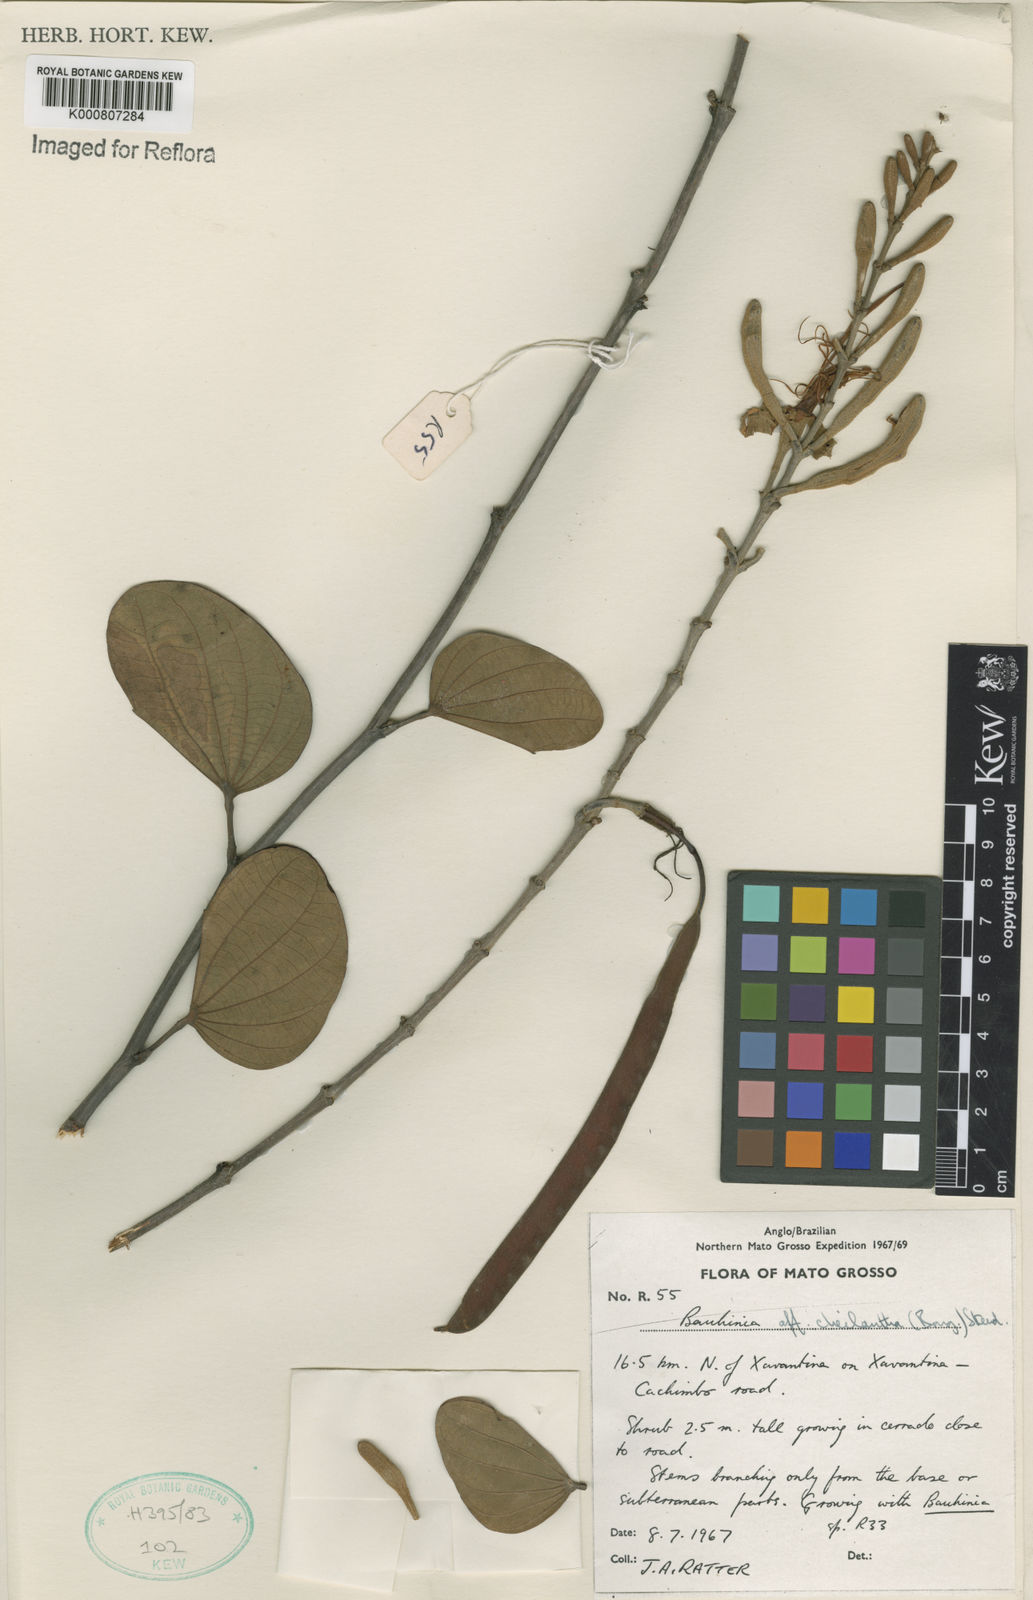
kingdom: Plantae
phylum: Tracheophyta
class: Magnoliopsida
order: Fabales
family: Fabaceae
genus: Bauhinia
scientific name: Bauhinia cheilantha
